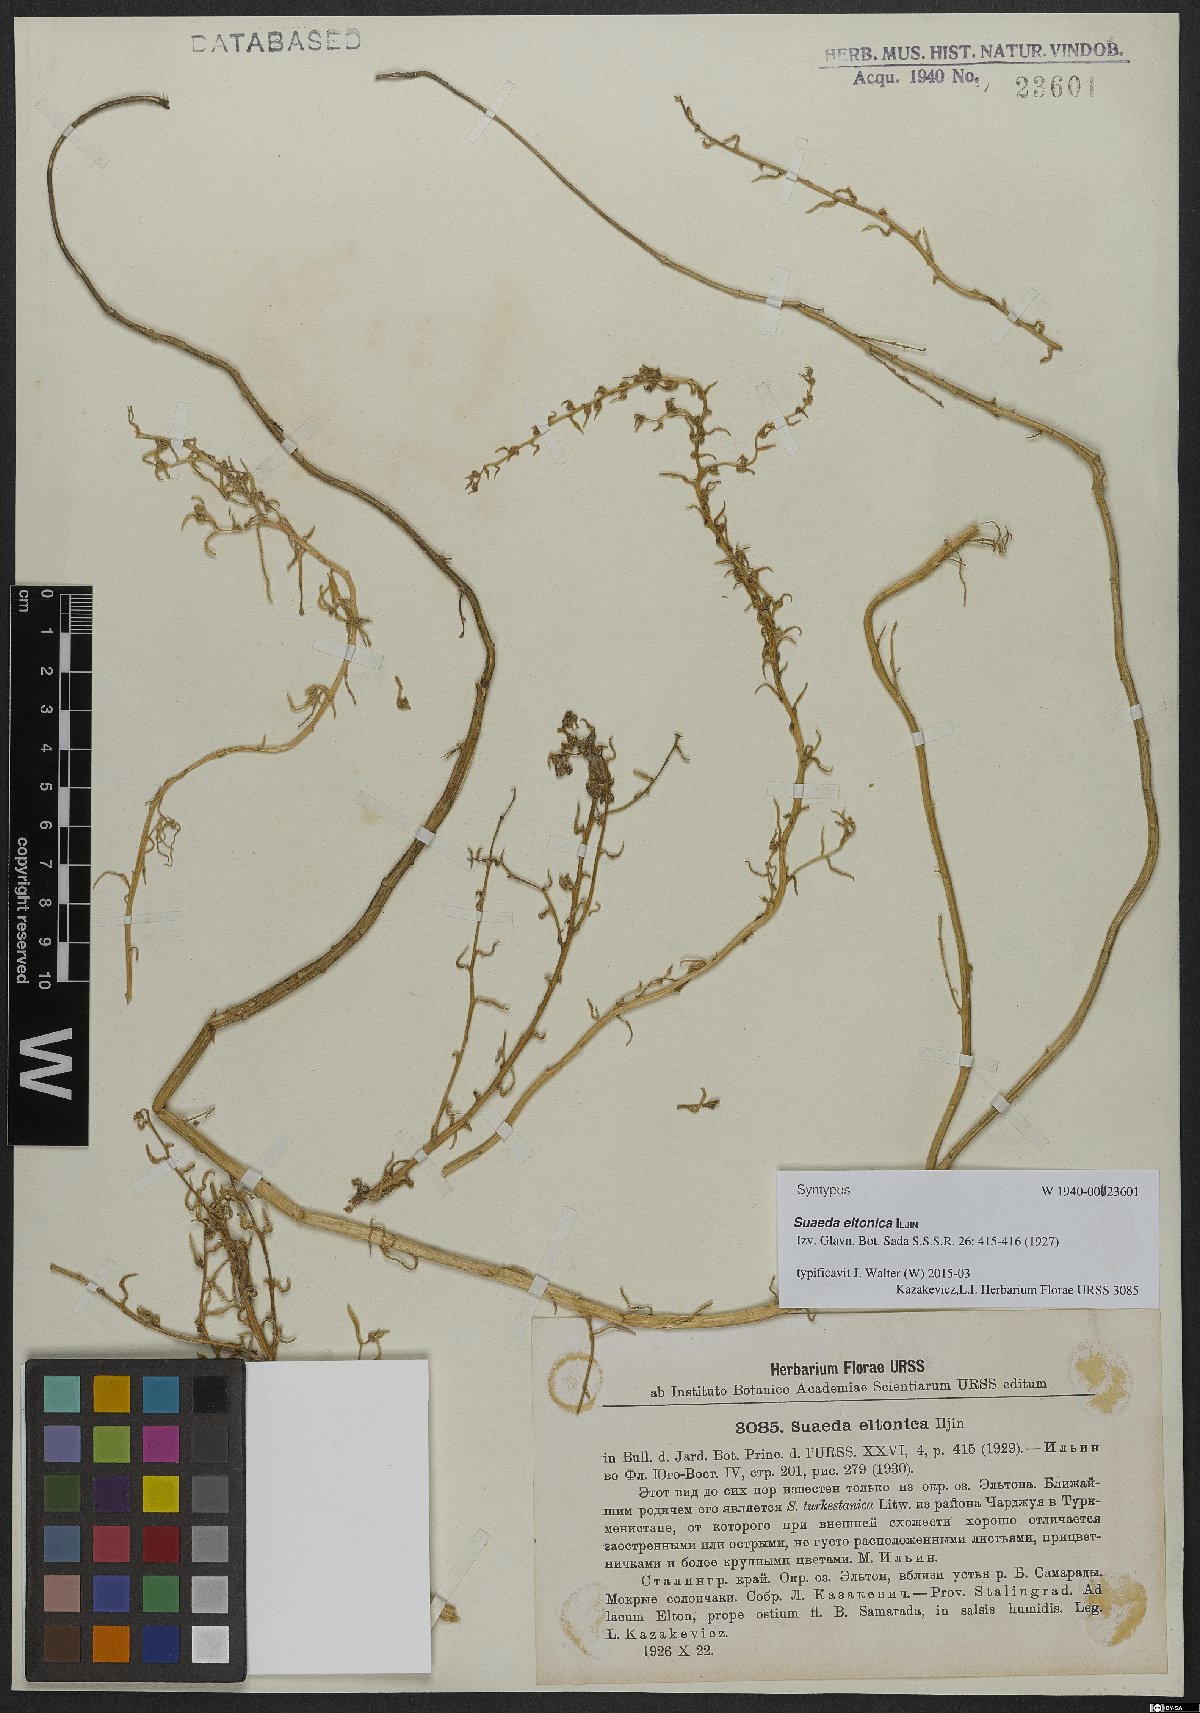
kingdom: Plantae
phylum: Tracheophyta
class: Magnoliopsida
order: Caryophyllales
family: Amaranthaceae
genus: Suaeda
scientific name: Suaeda eltonica
